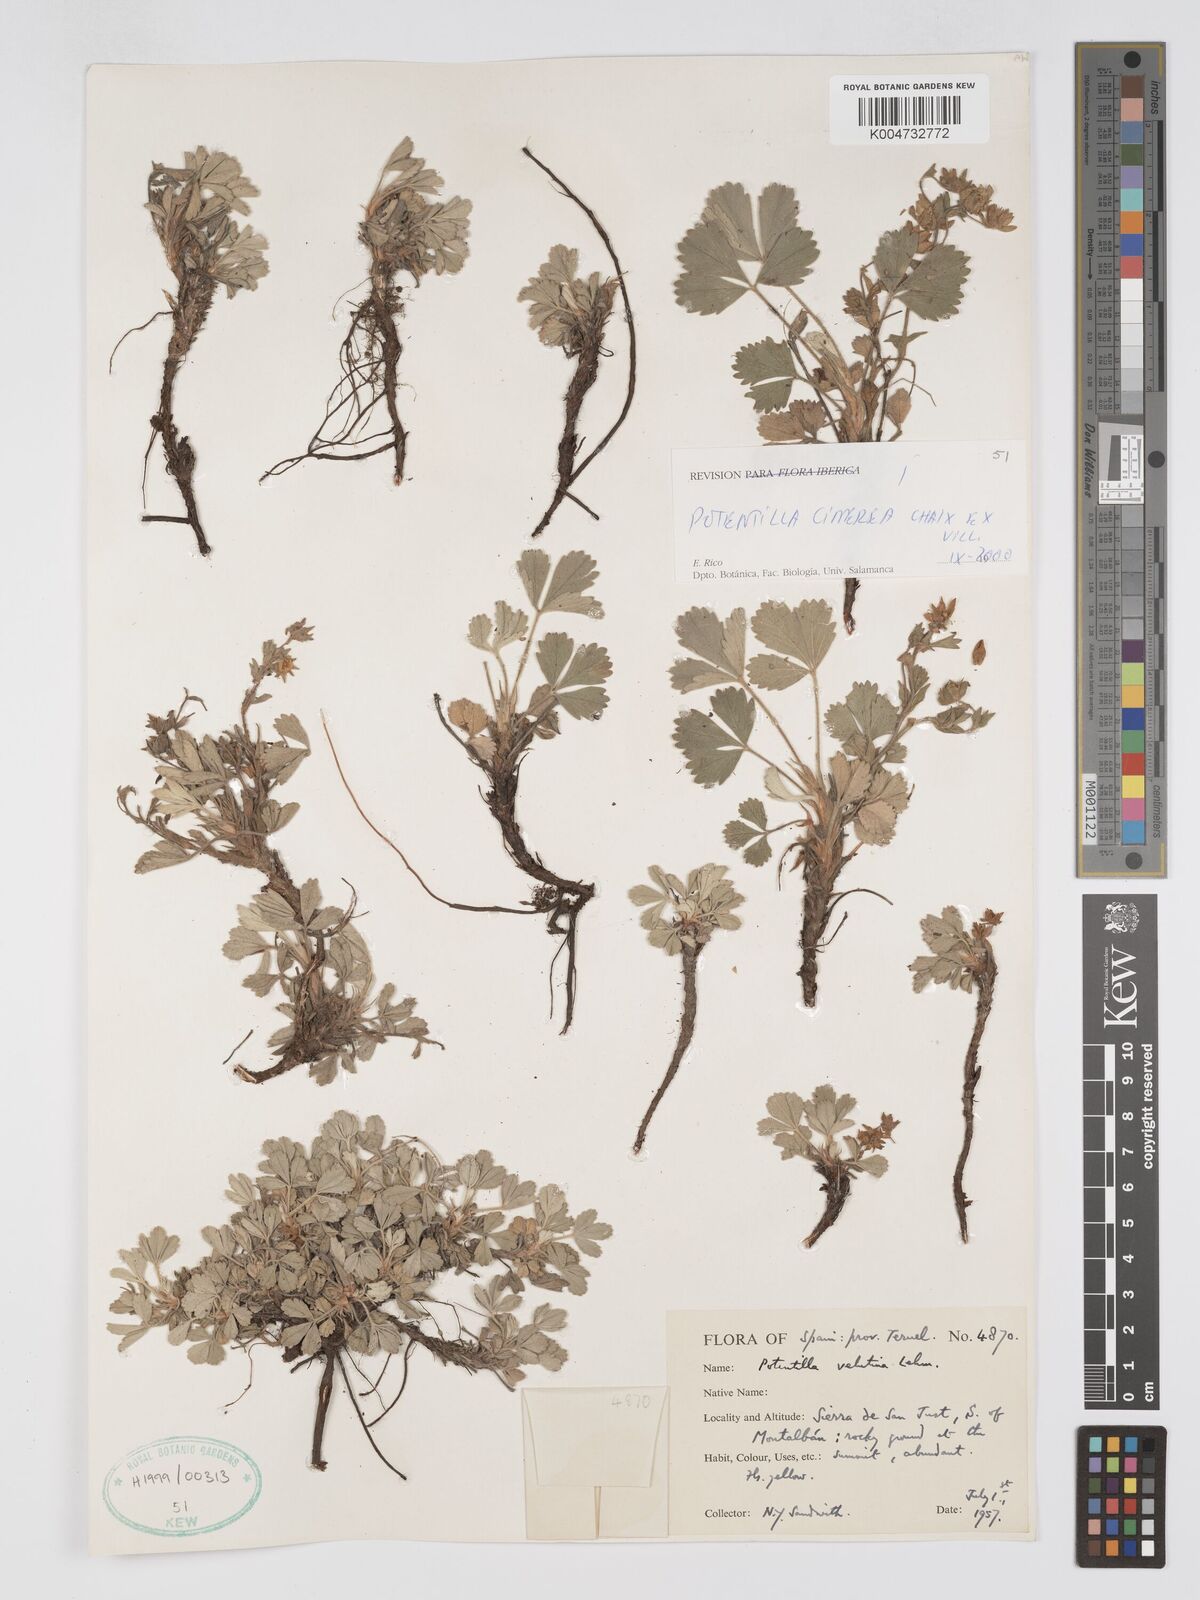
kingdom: Plantae
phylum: Tracheophyta
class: Magnoliopsida
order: Rosales
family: Rosaceae
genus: Potentilla
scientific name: Potentilla
